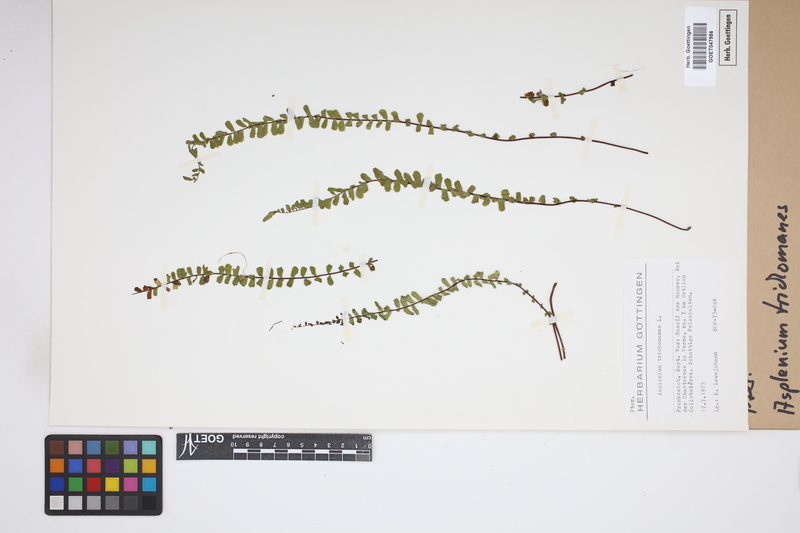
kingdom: Plantae
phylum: Tracheophyta
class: Polypodiopsida
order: Polypodiales
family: Aspleniaceae
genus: Asplenium
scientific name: Asplenium trichomanes
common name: Maidenhair spleenwort
